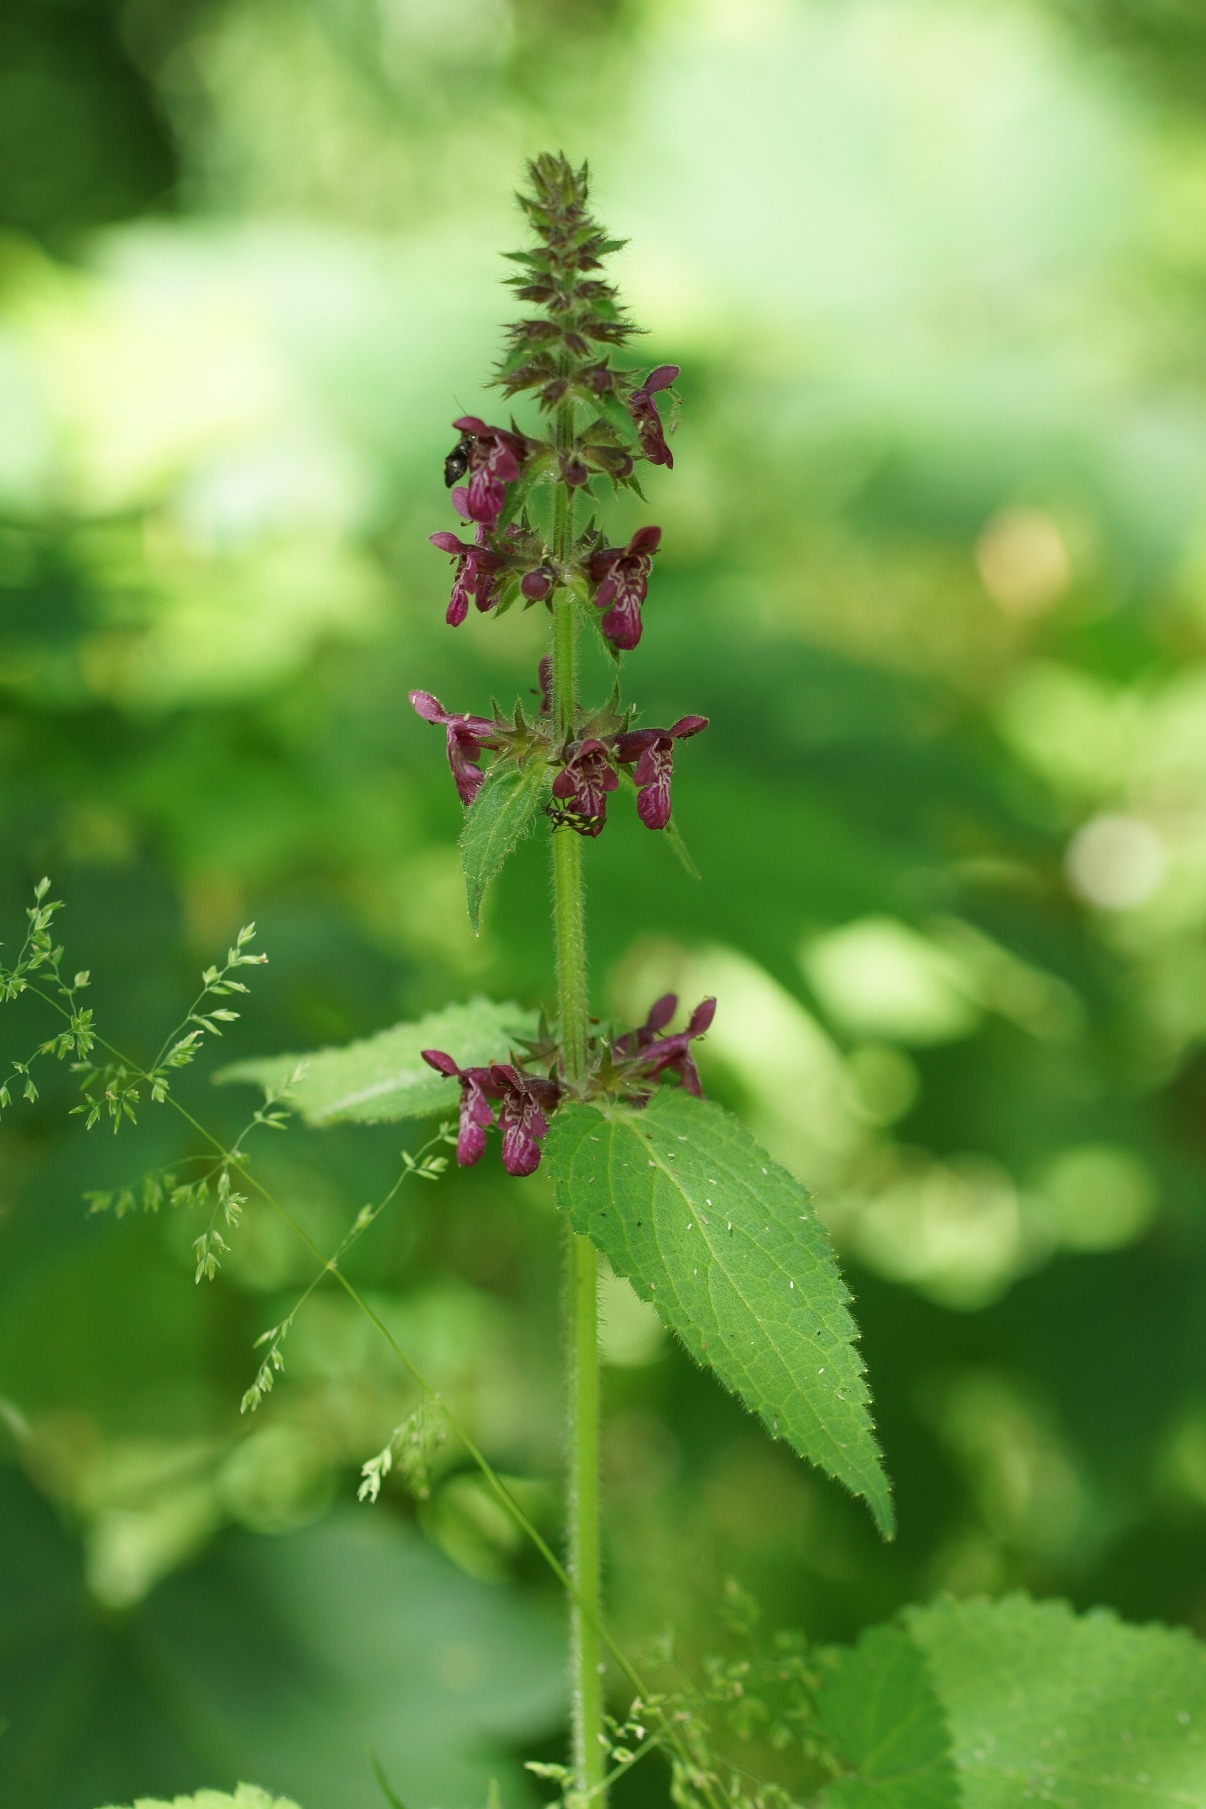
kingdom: Plantae
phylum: Tracheophyta
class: Magnoliopsida
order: Lamiales
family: Lamiaceae
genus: Stachys
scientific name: Stachys sylvatica
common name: Skov-galtetand
